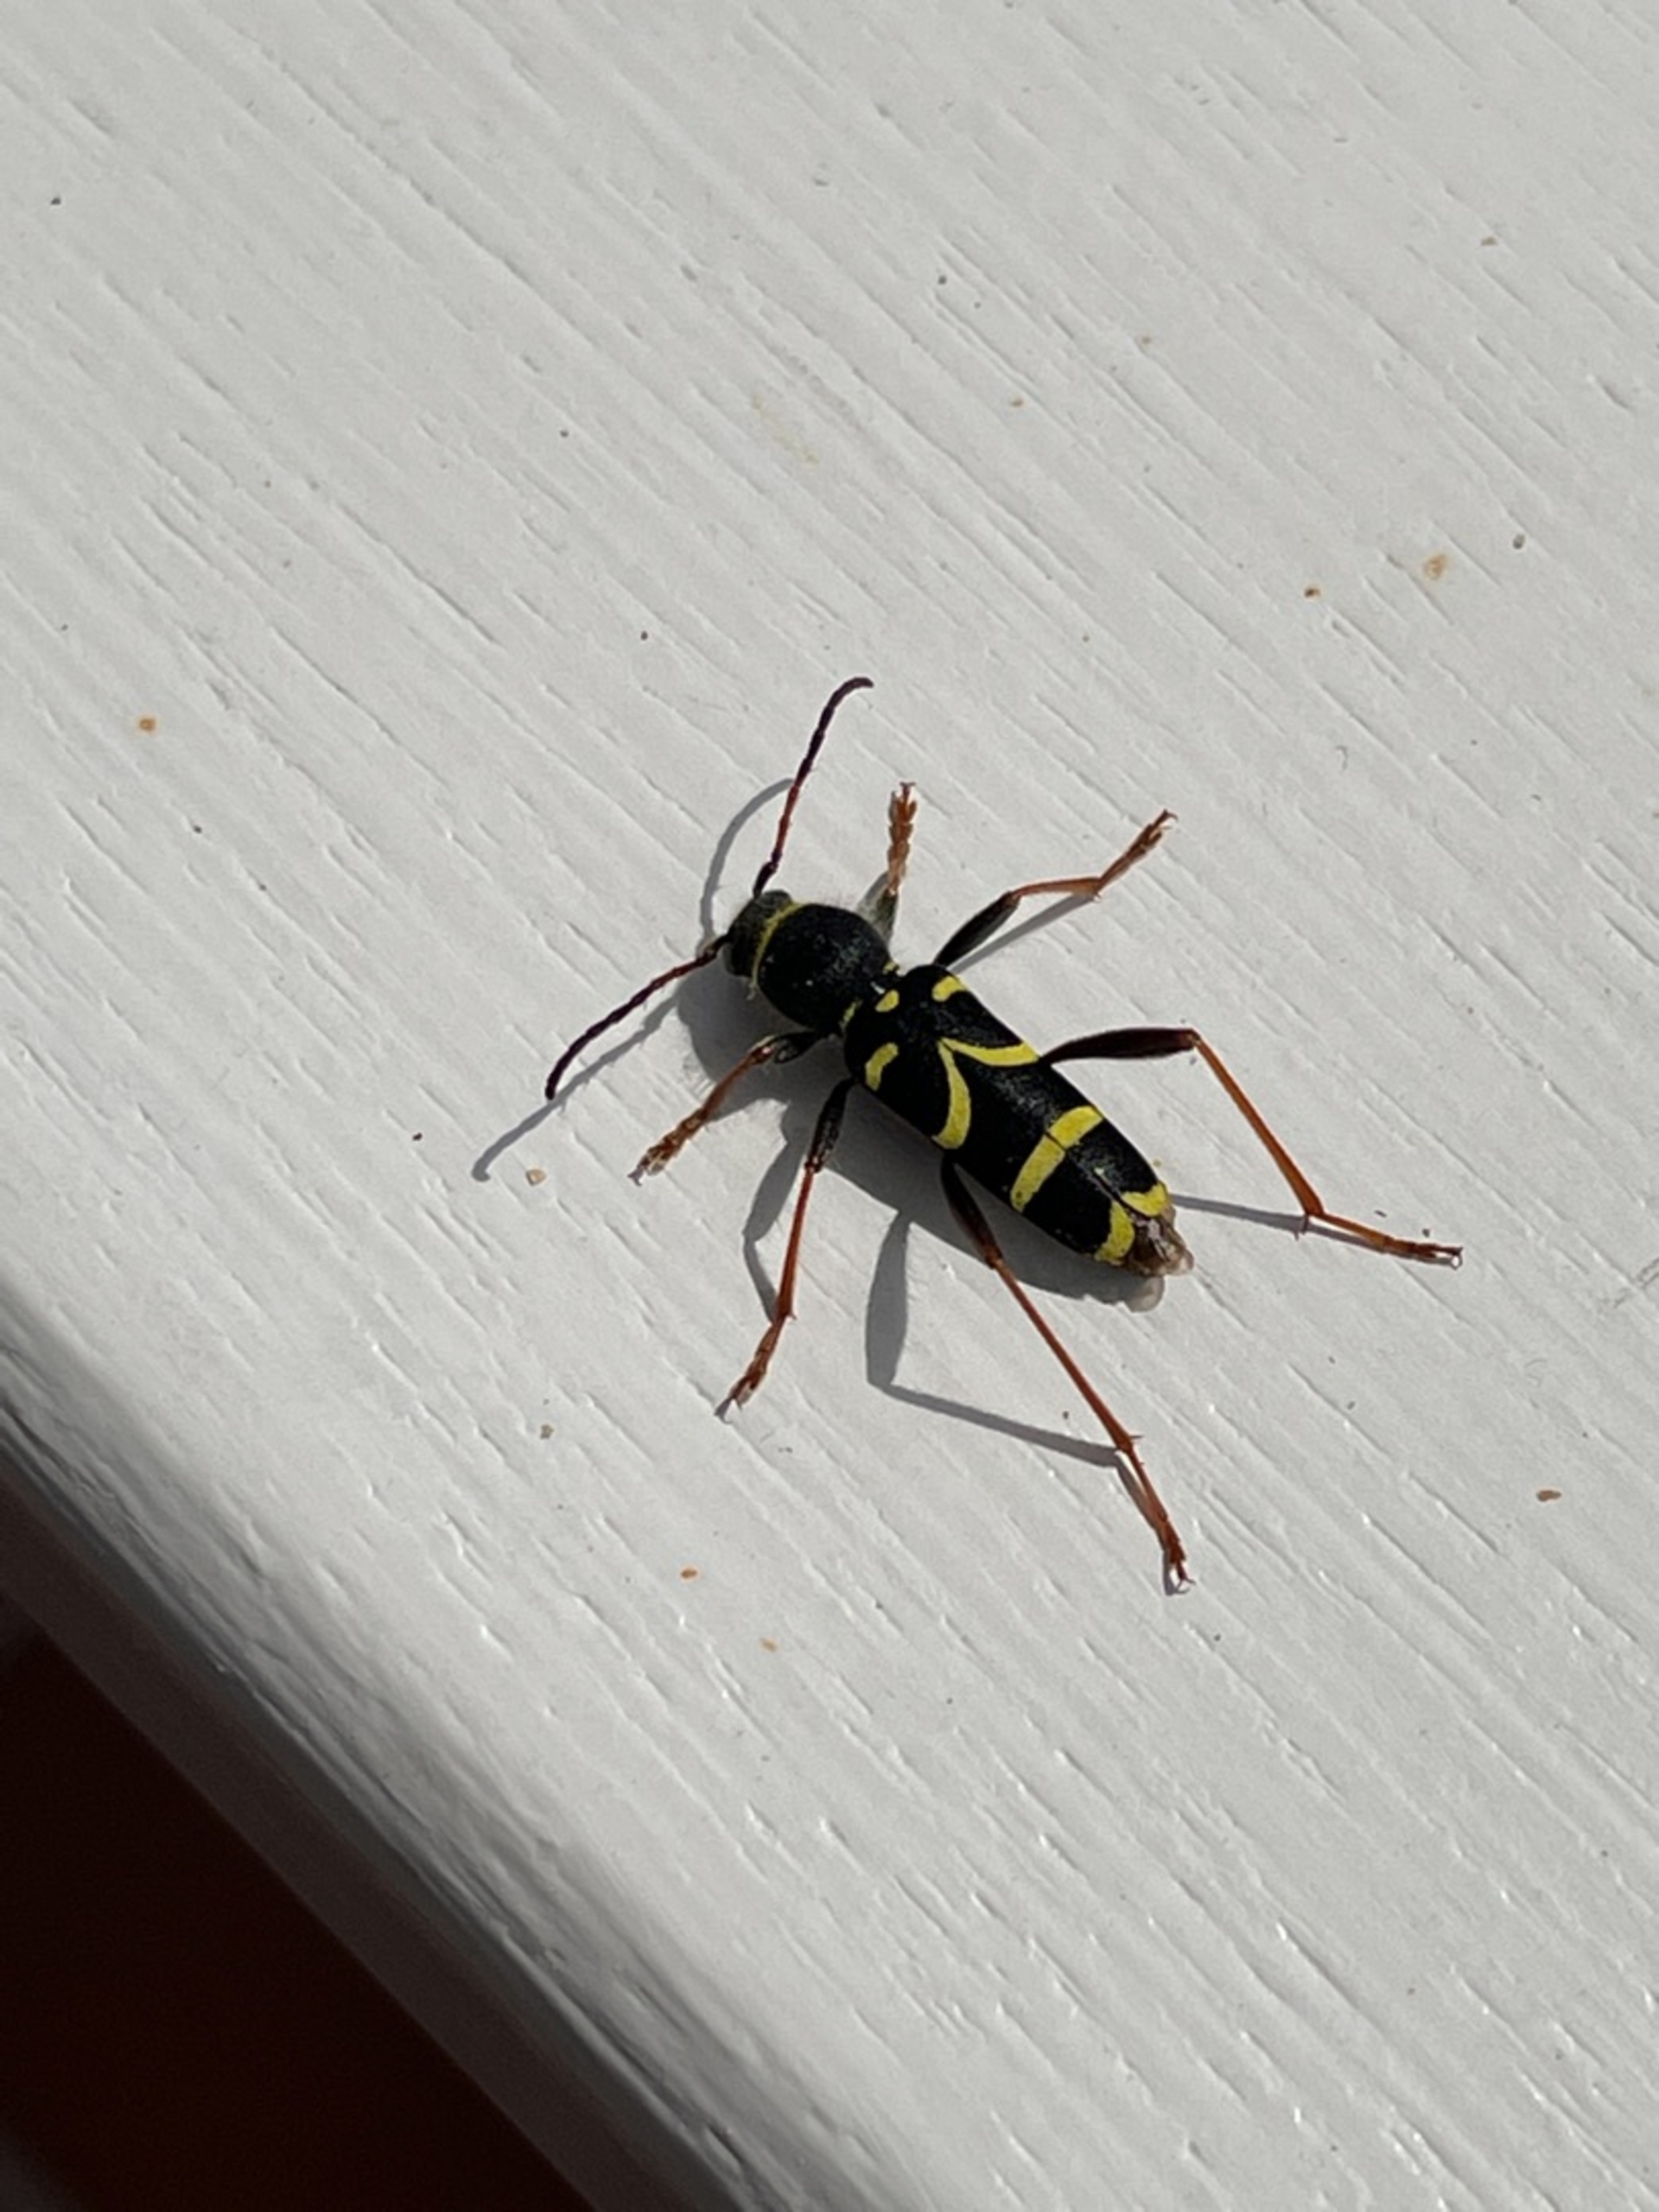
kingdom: Animalia
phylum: Arthropoda
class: Insecta
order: Coleoptera
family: Cerambycidae
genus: Clytus
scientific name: Clytus arietis
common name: Lille hvepsebuk
